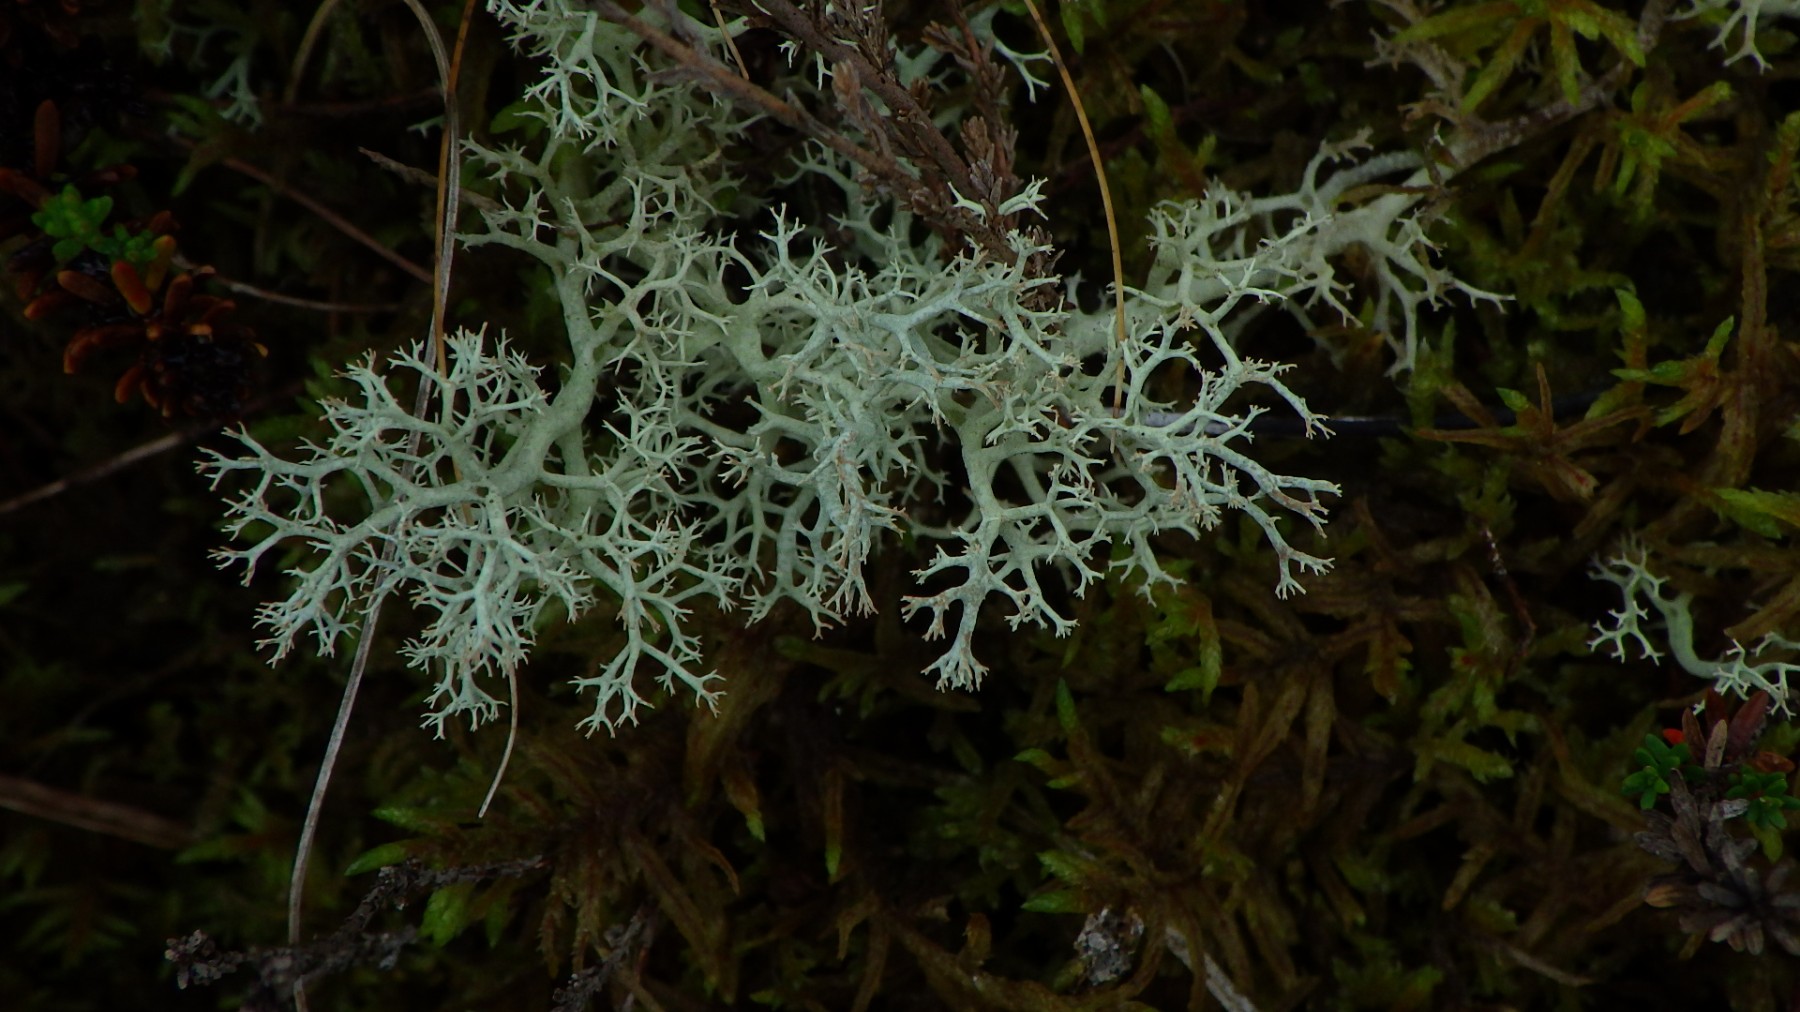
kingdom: Fungi
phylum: Ascomycota
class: Lecanoromycetes
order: Lecanorales
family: Cladoniaceae
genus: Cladonia
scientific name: Cladonia portentosa
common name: hede-rensdyrlav
